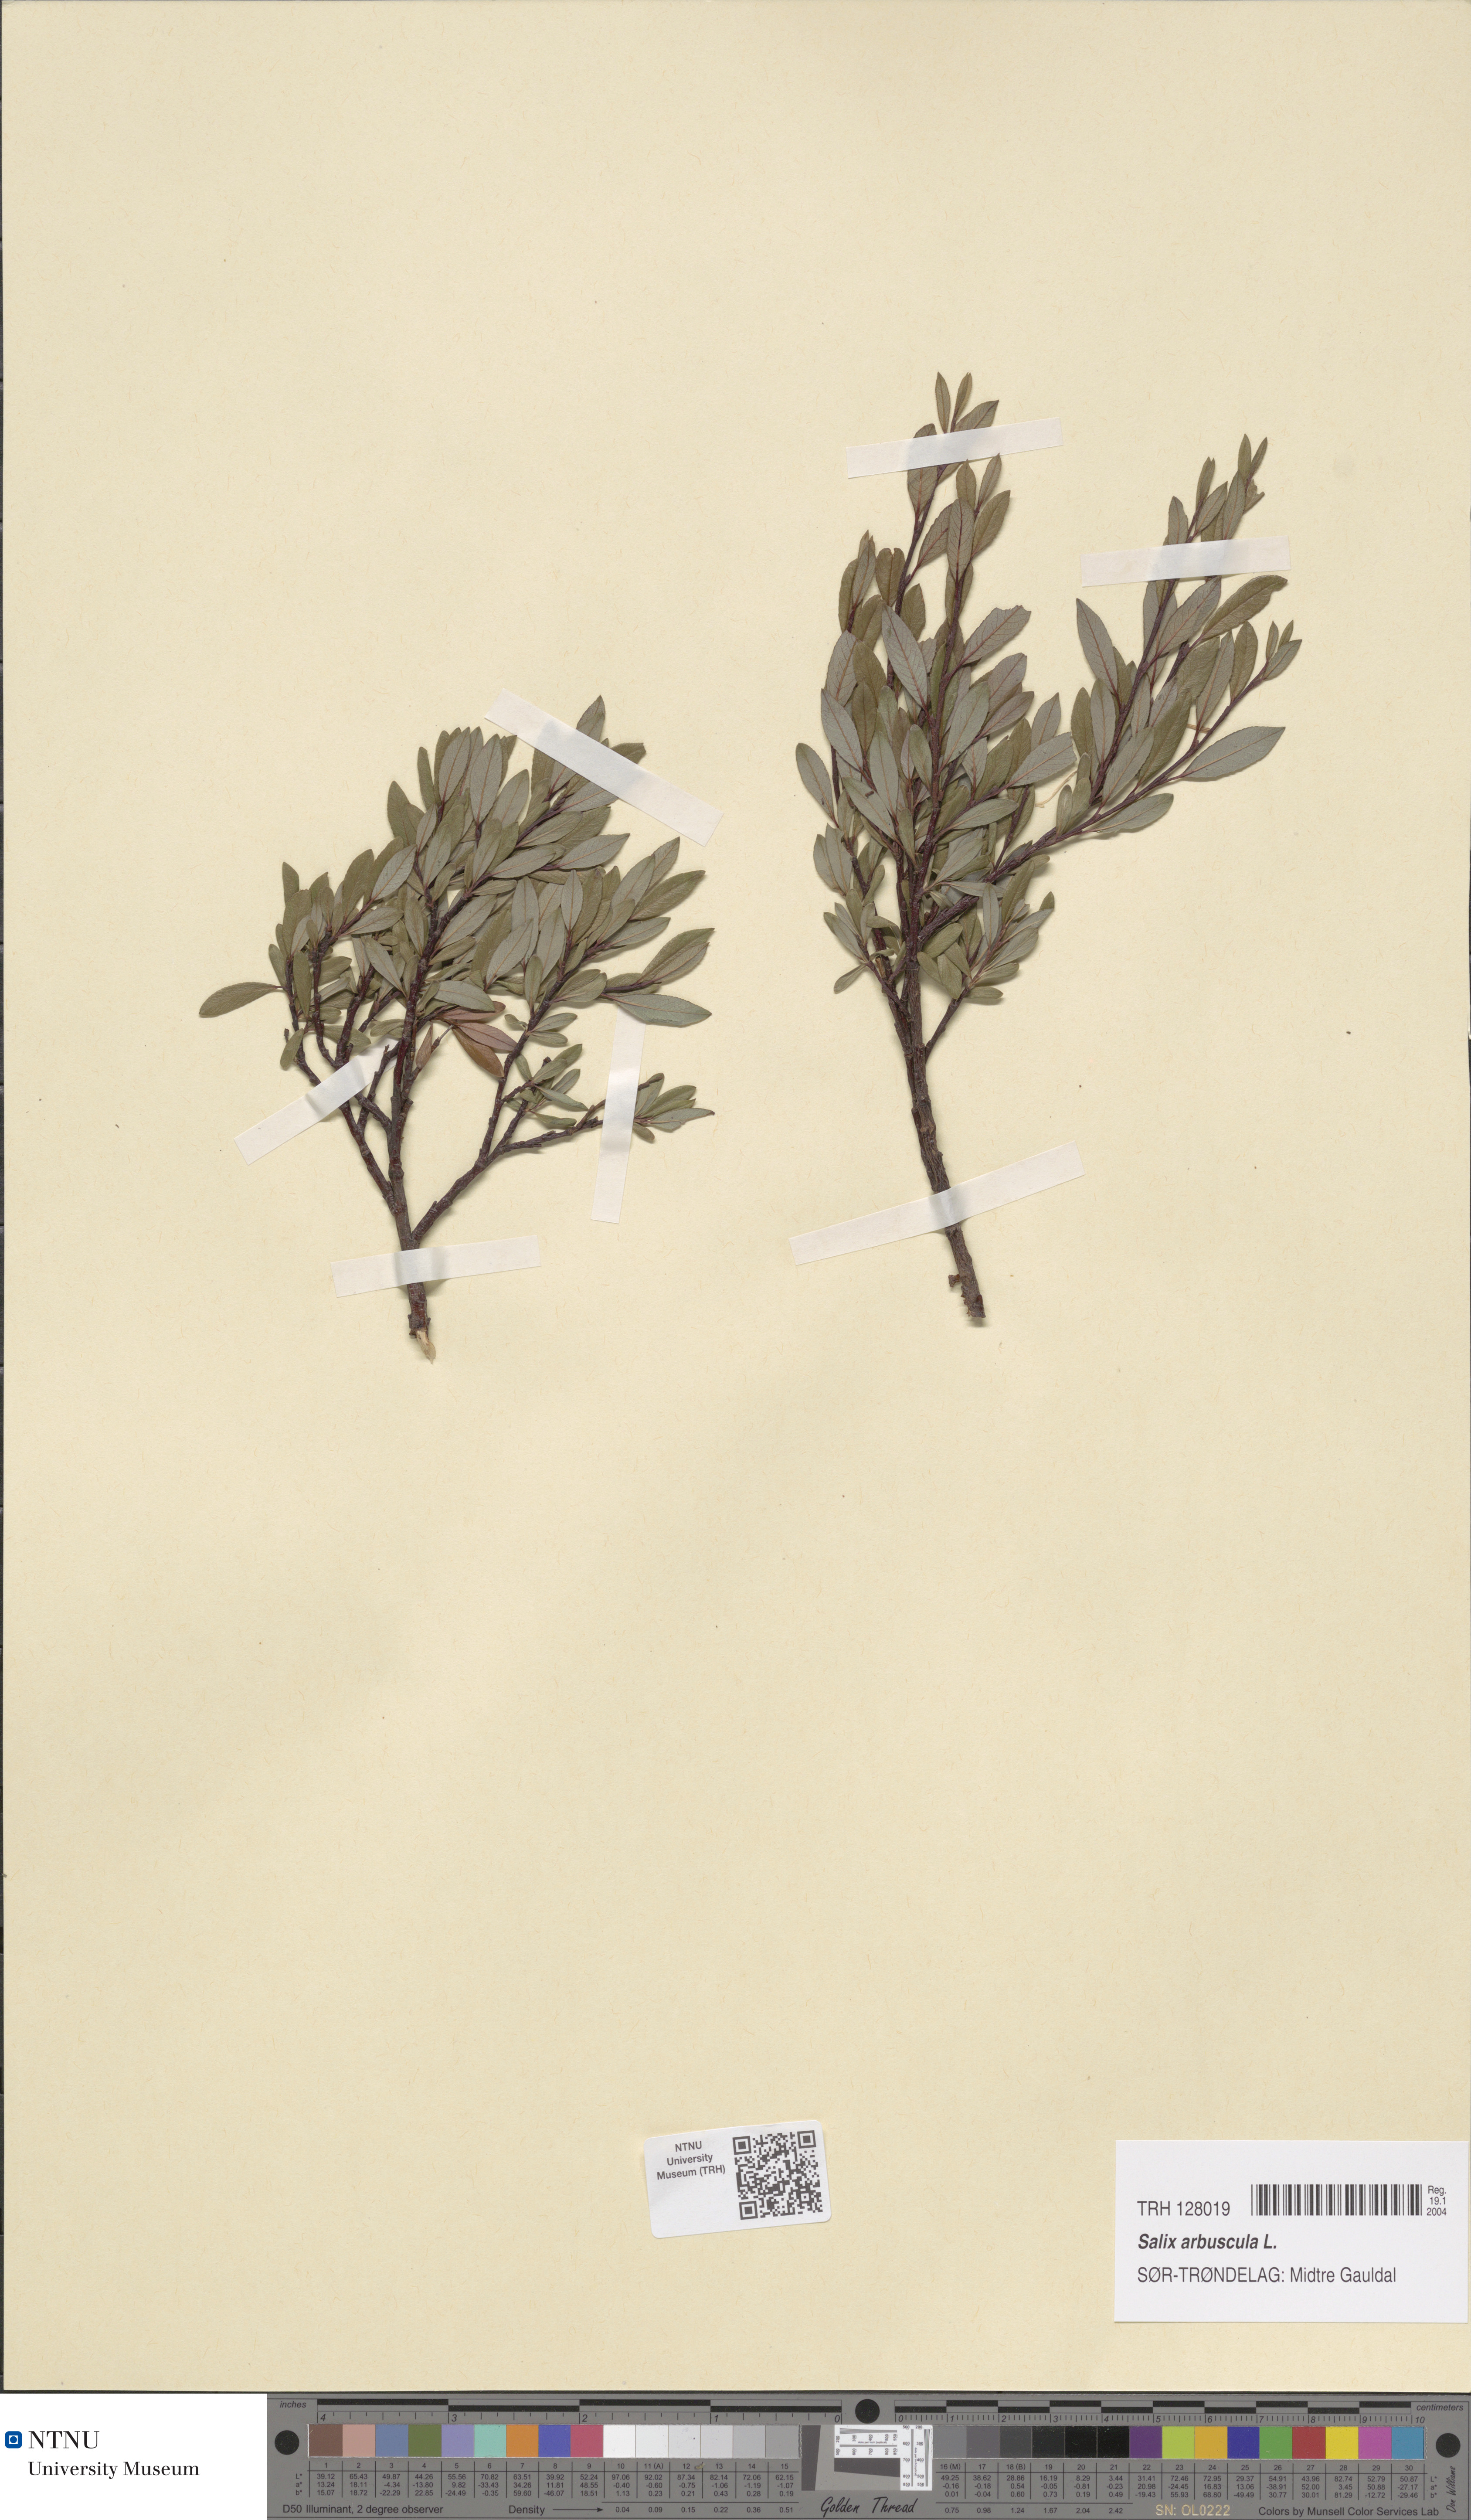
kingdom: Plantae
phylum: Tracheophyta
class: Magnoliopsida
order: Malpighiales
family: Salicaceae
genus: Salix
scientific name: Salix arbuscula
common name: Mountain willow
